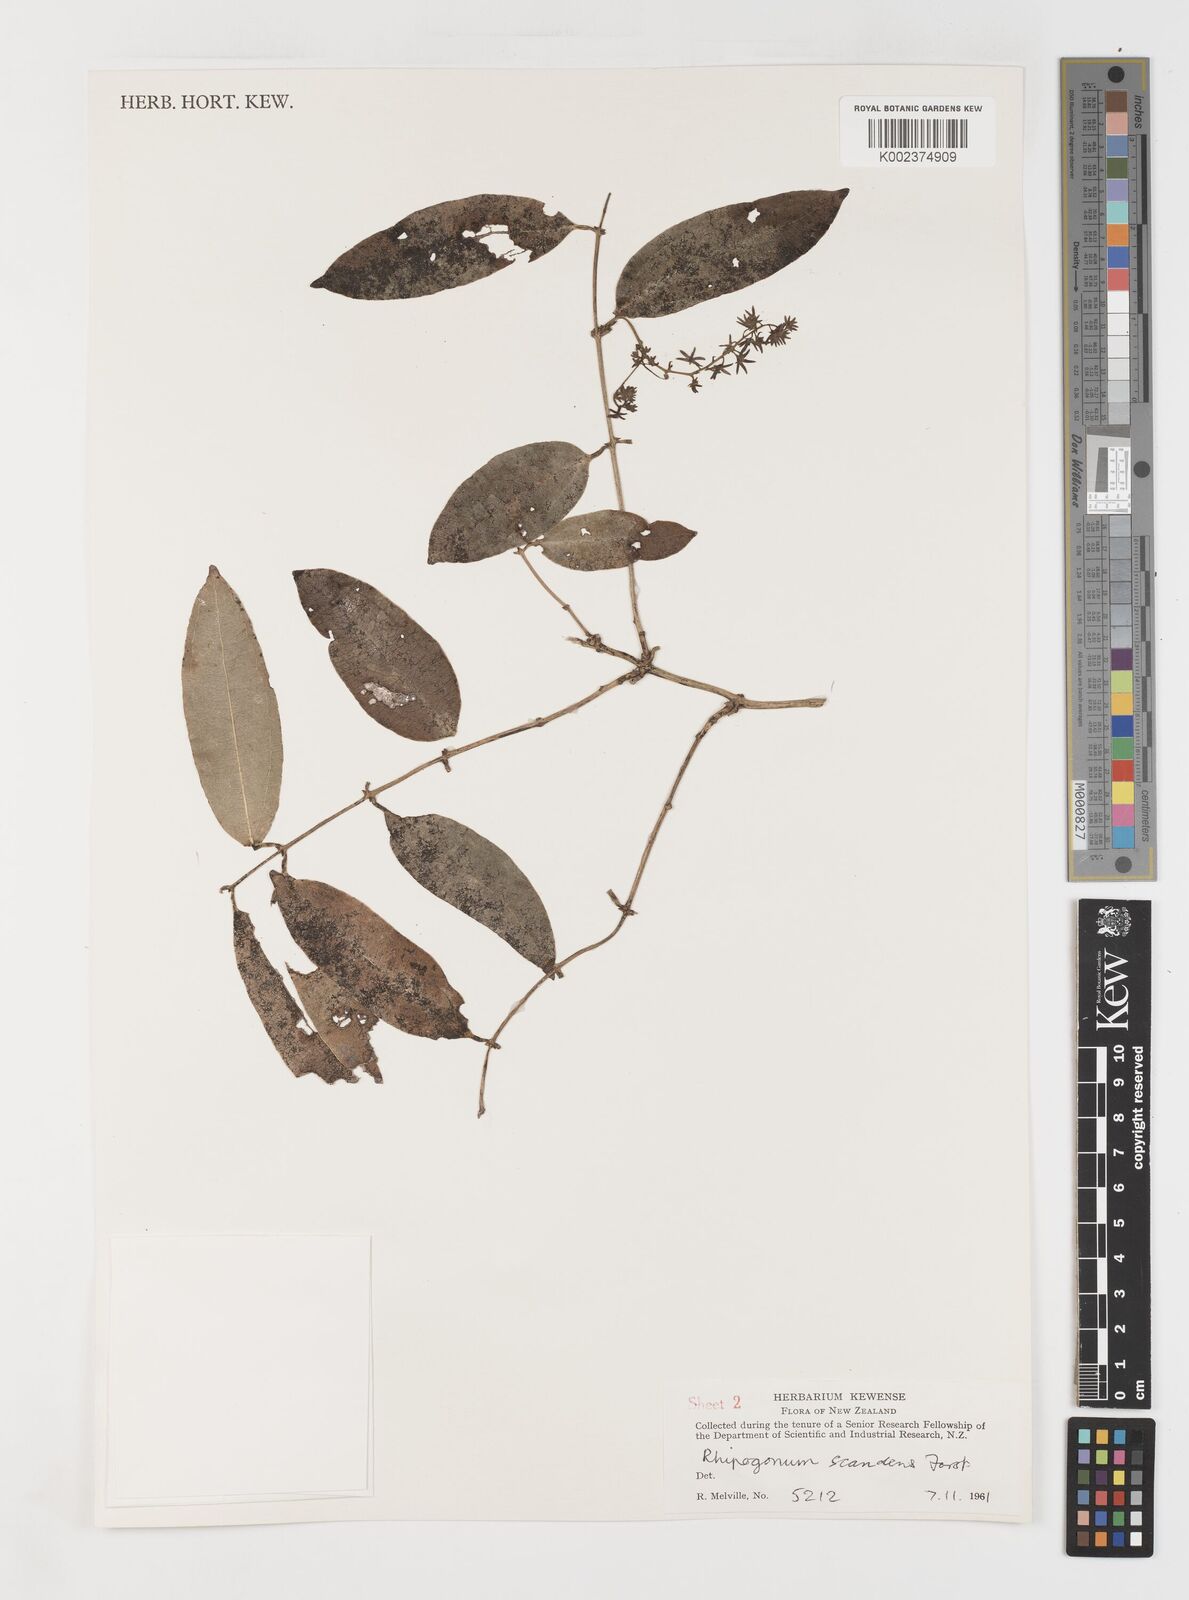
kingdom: Plantae
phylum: Tracheophyta
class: Liliopsida
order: Liliales
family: Ripogonaceae
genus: Ripogonum
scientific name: Ripogonum
